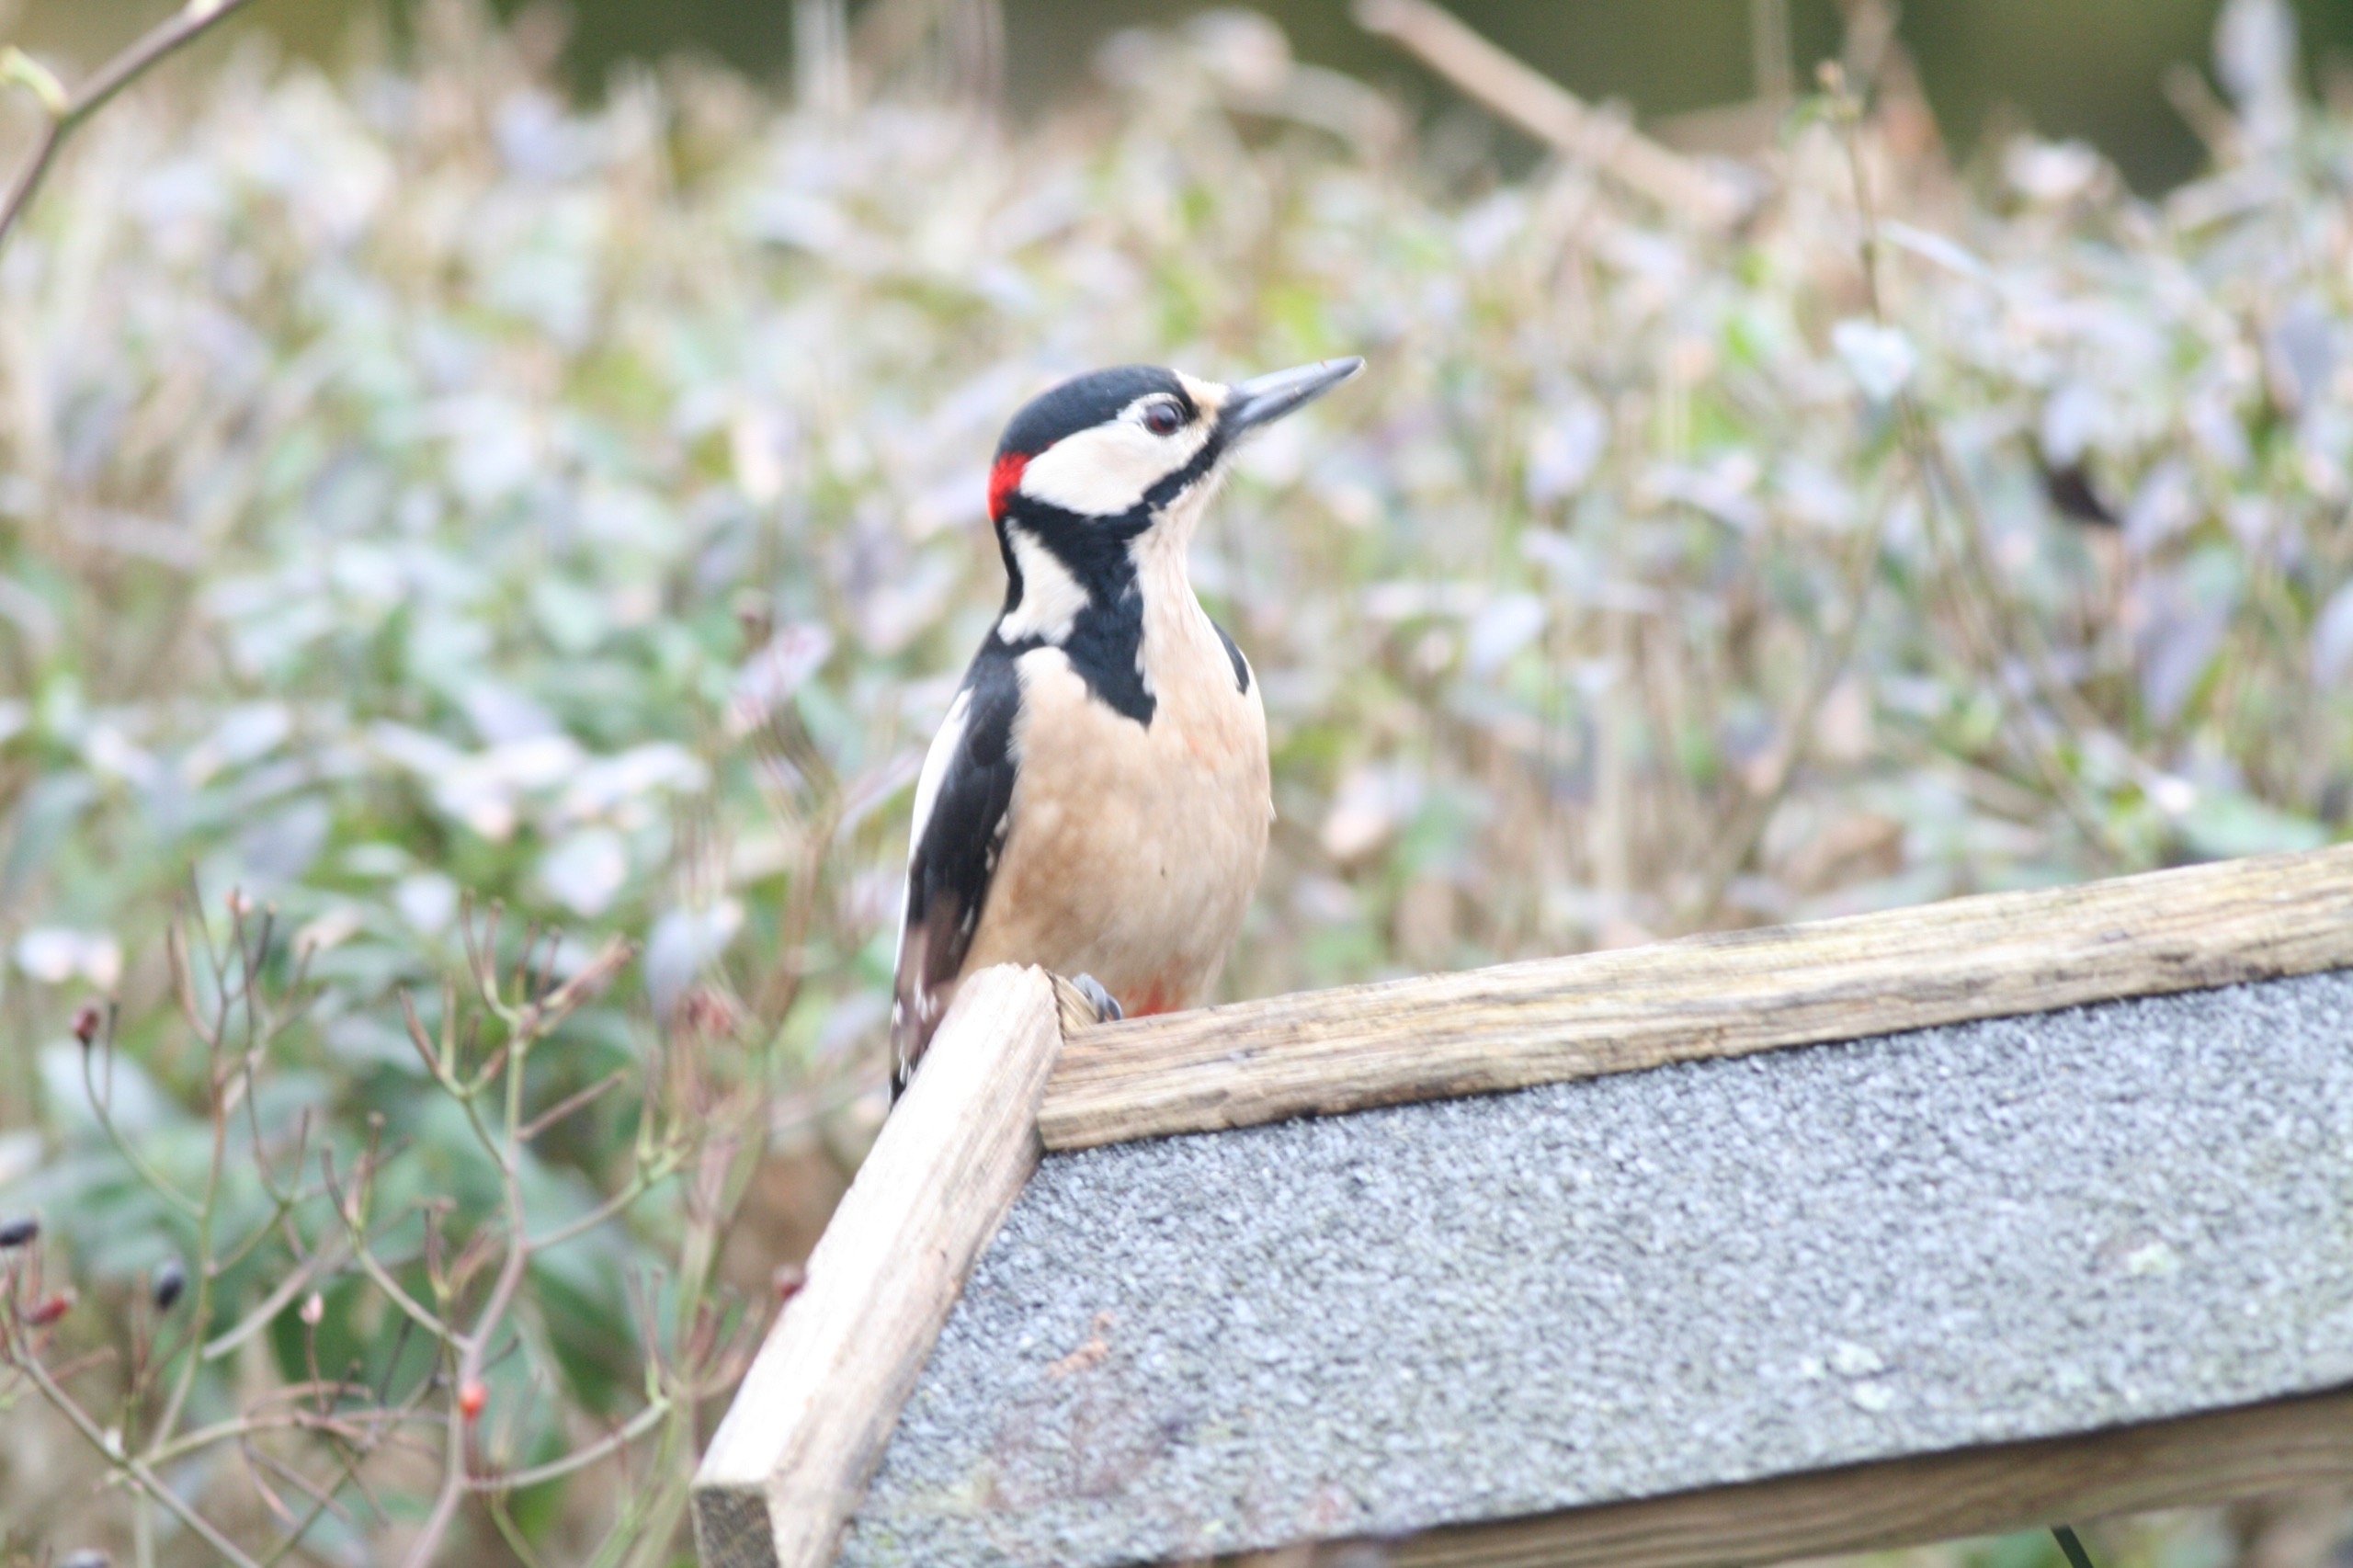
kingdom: Animalia
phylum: Chordata
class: Aves
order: Piciformes
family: Picidae
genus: Dendrocopos
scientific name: Dendrocopos major
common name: Stor flagspætte
